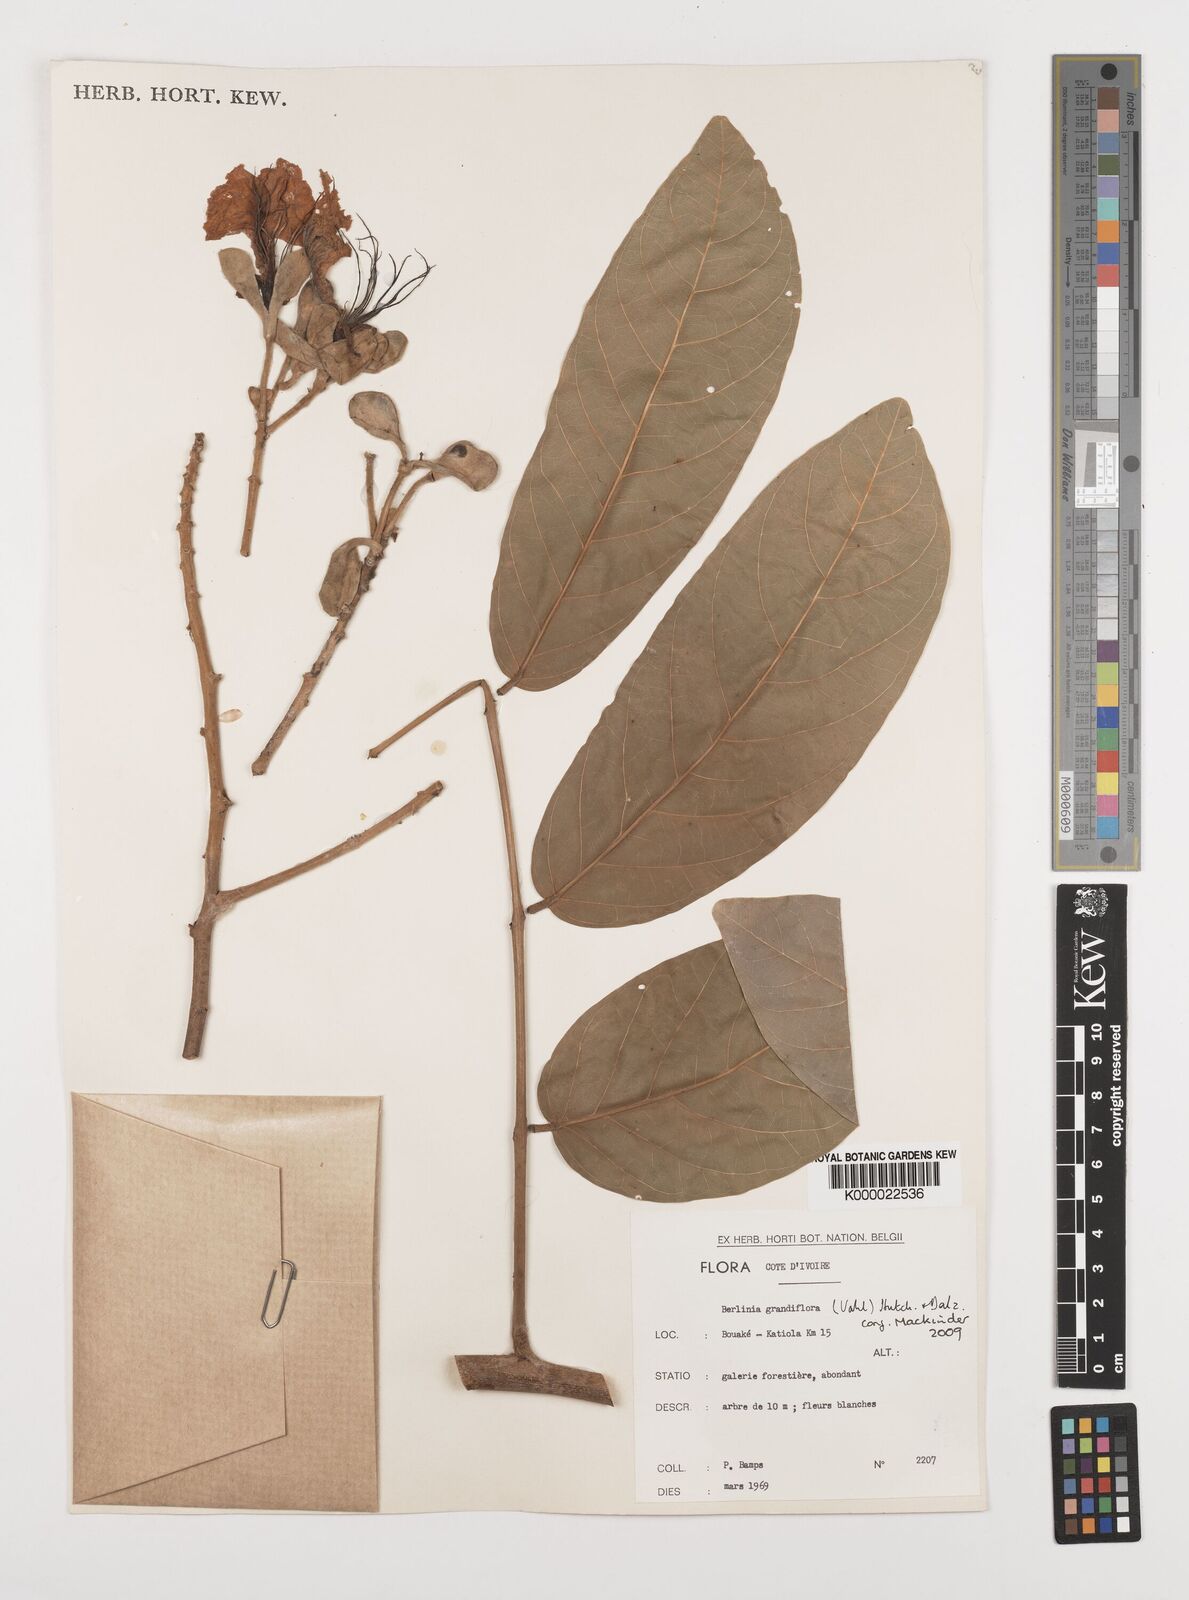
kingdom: Plantae
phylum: Tracheophyta
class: Magnoliopsida
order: Fabales
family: Fabaceae
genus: Berlinia
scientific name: Berlinia grandiflora
